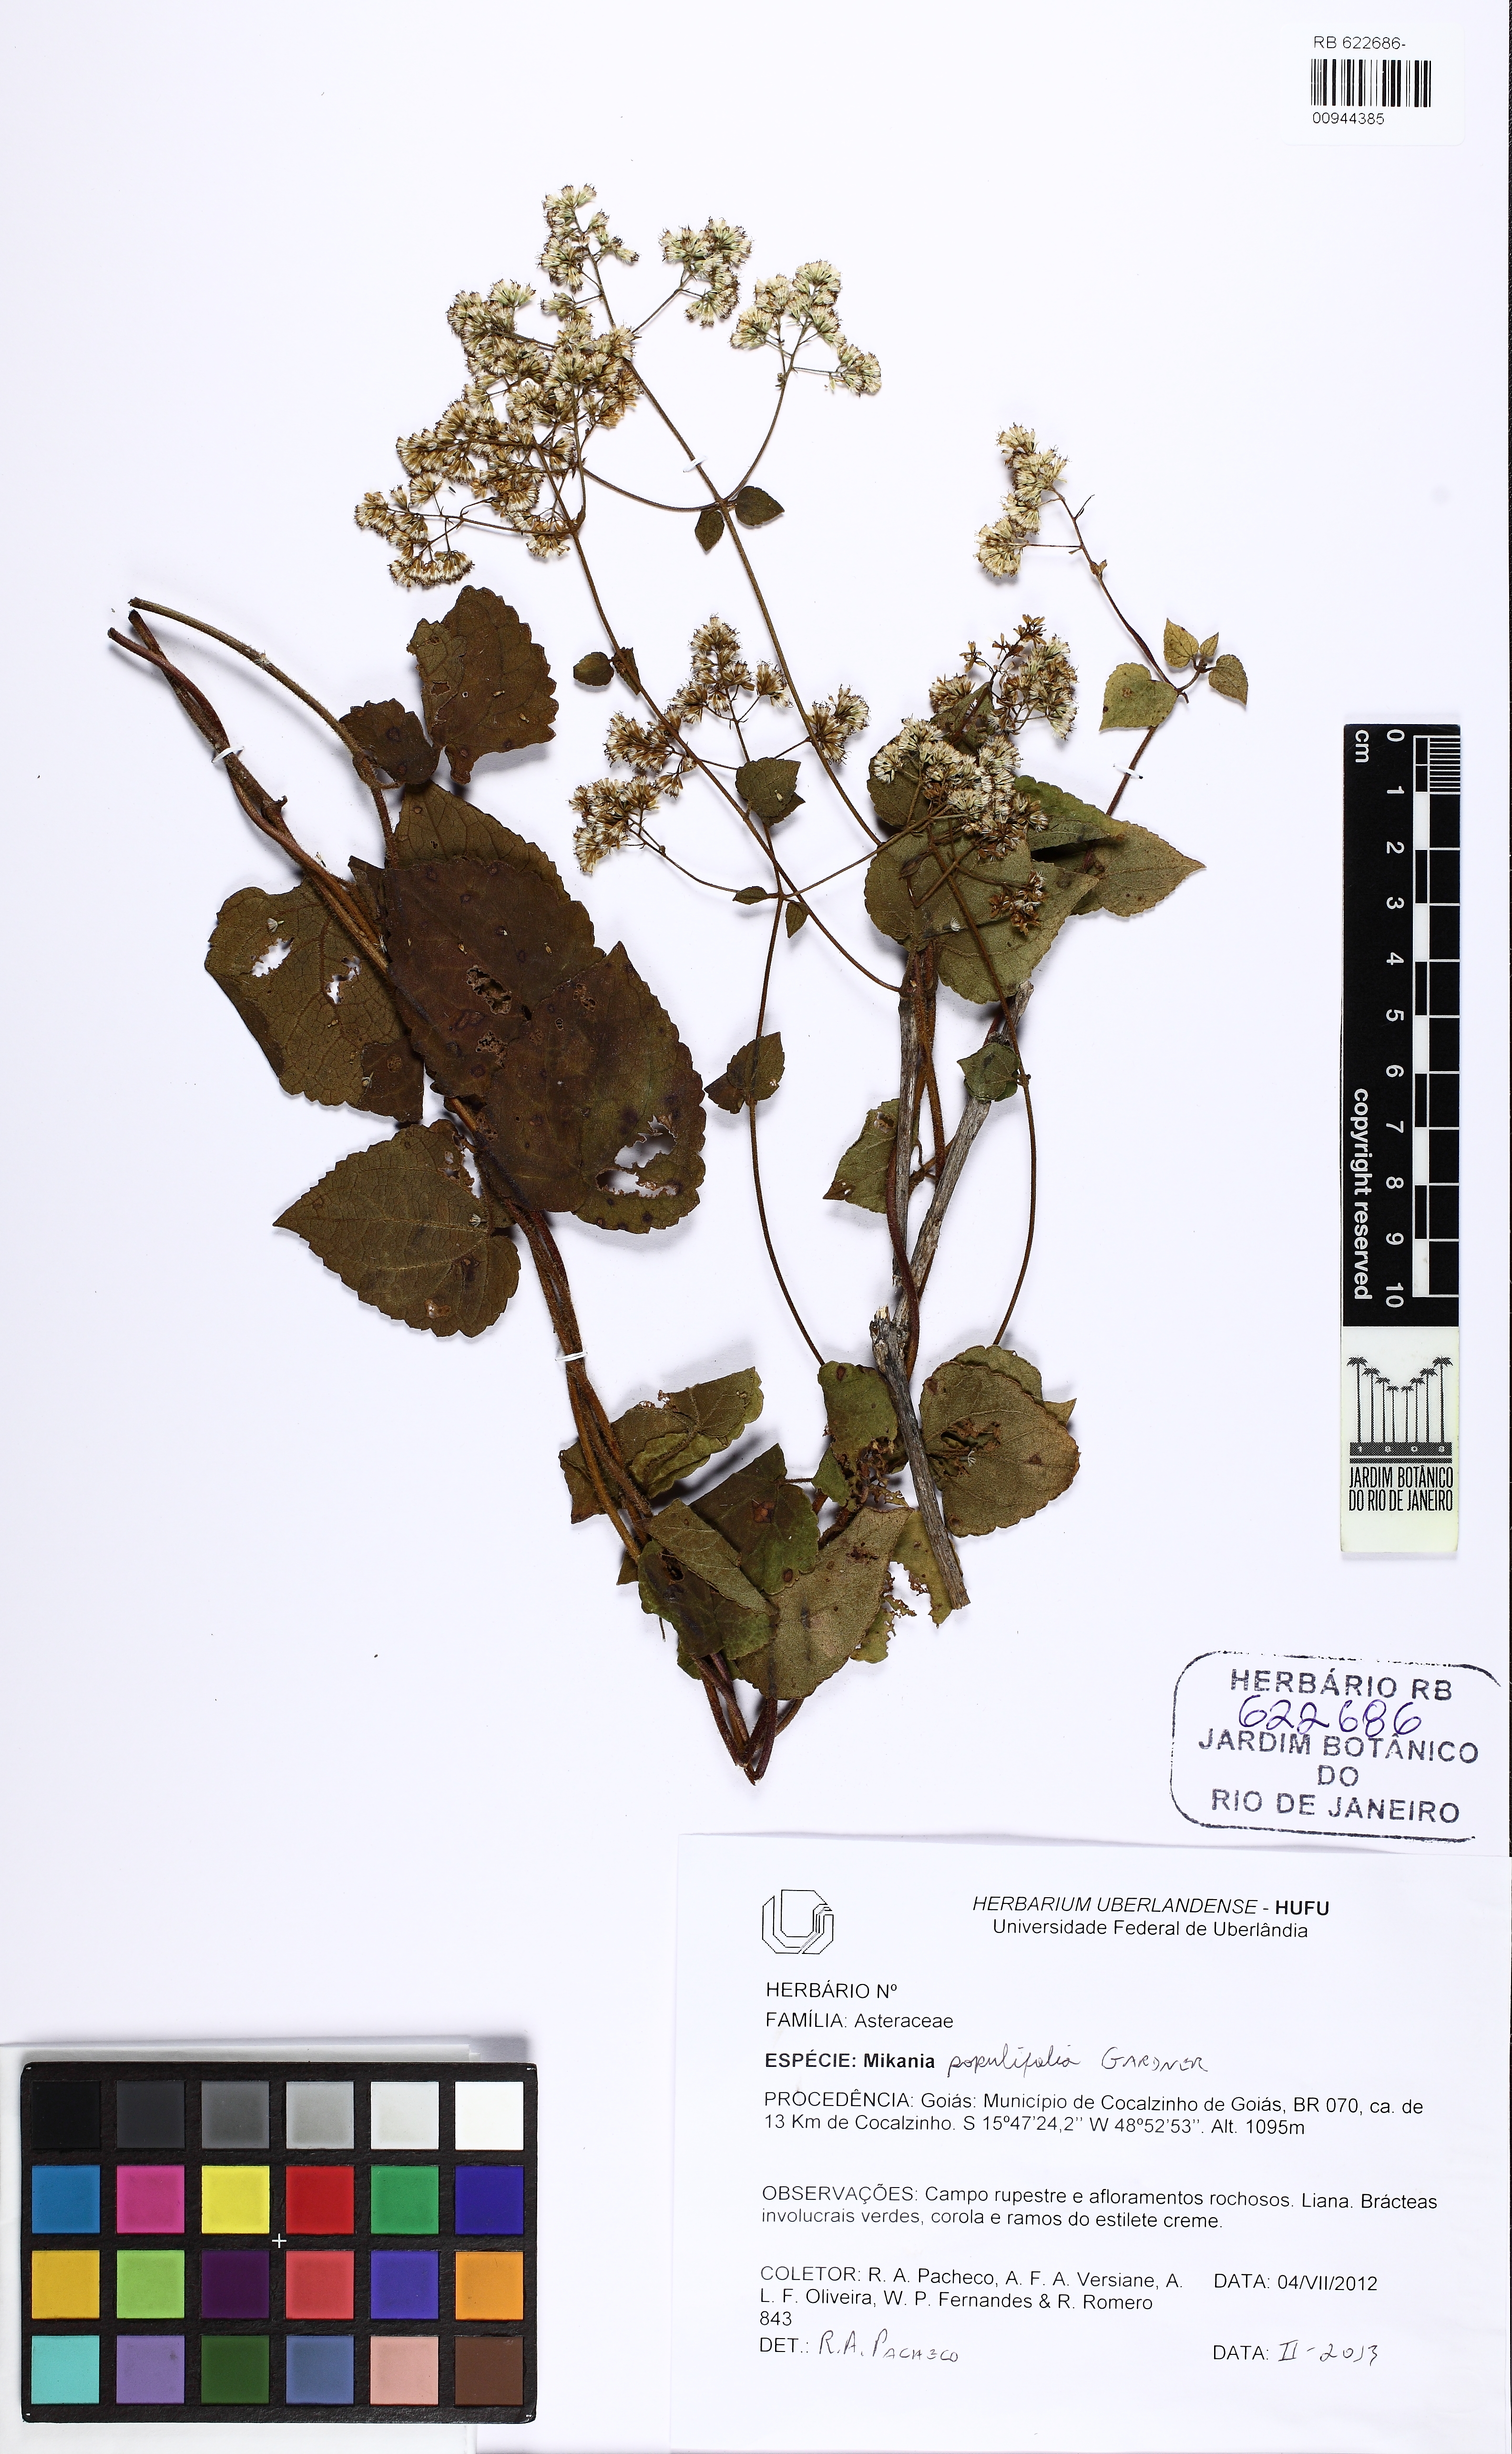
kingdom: Plantae
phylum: Tracheophyta
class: Magnoliopsida
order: Asterales
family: Asteraceae
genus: Mikania
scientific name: Mikania populifolia
